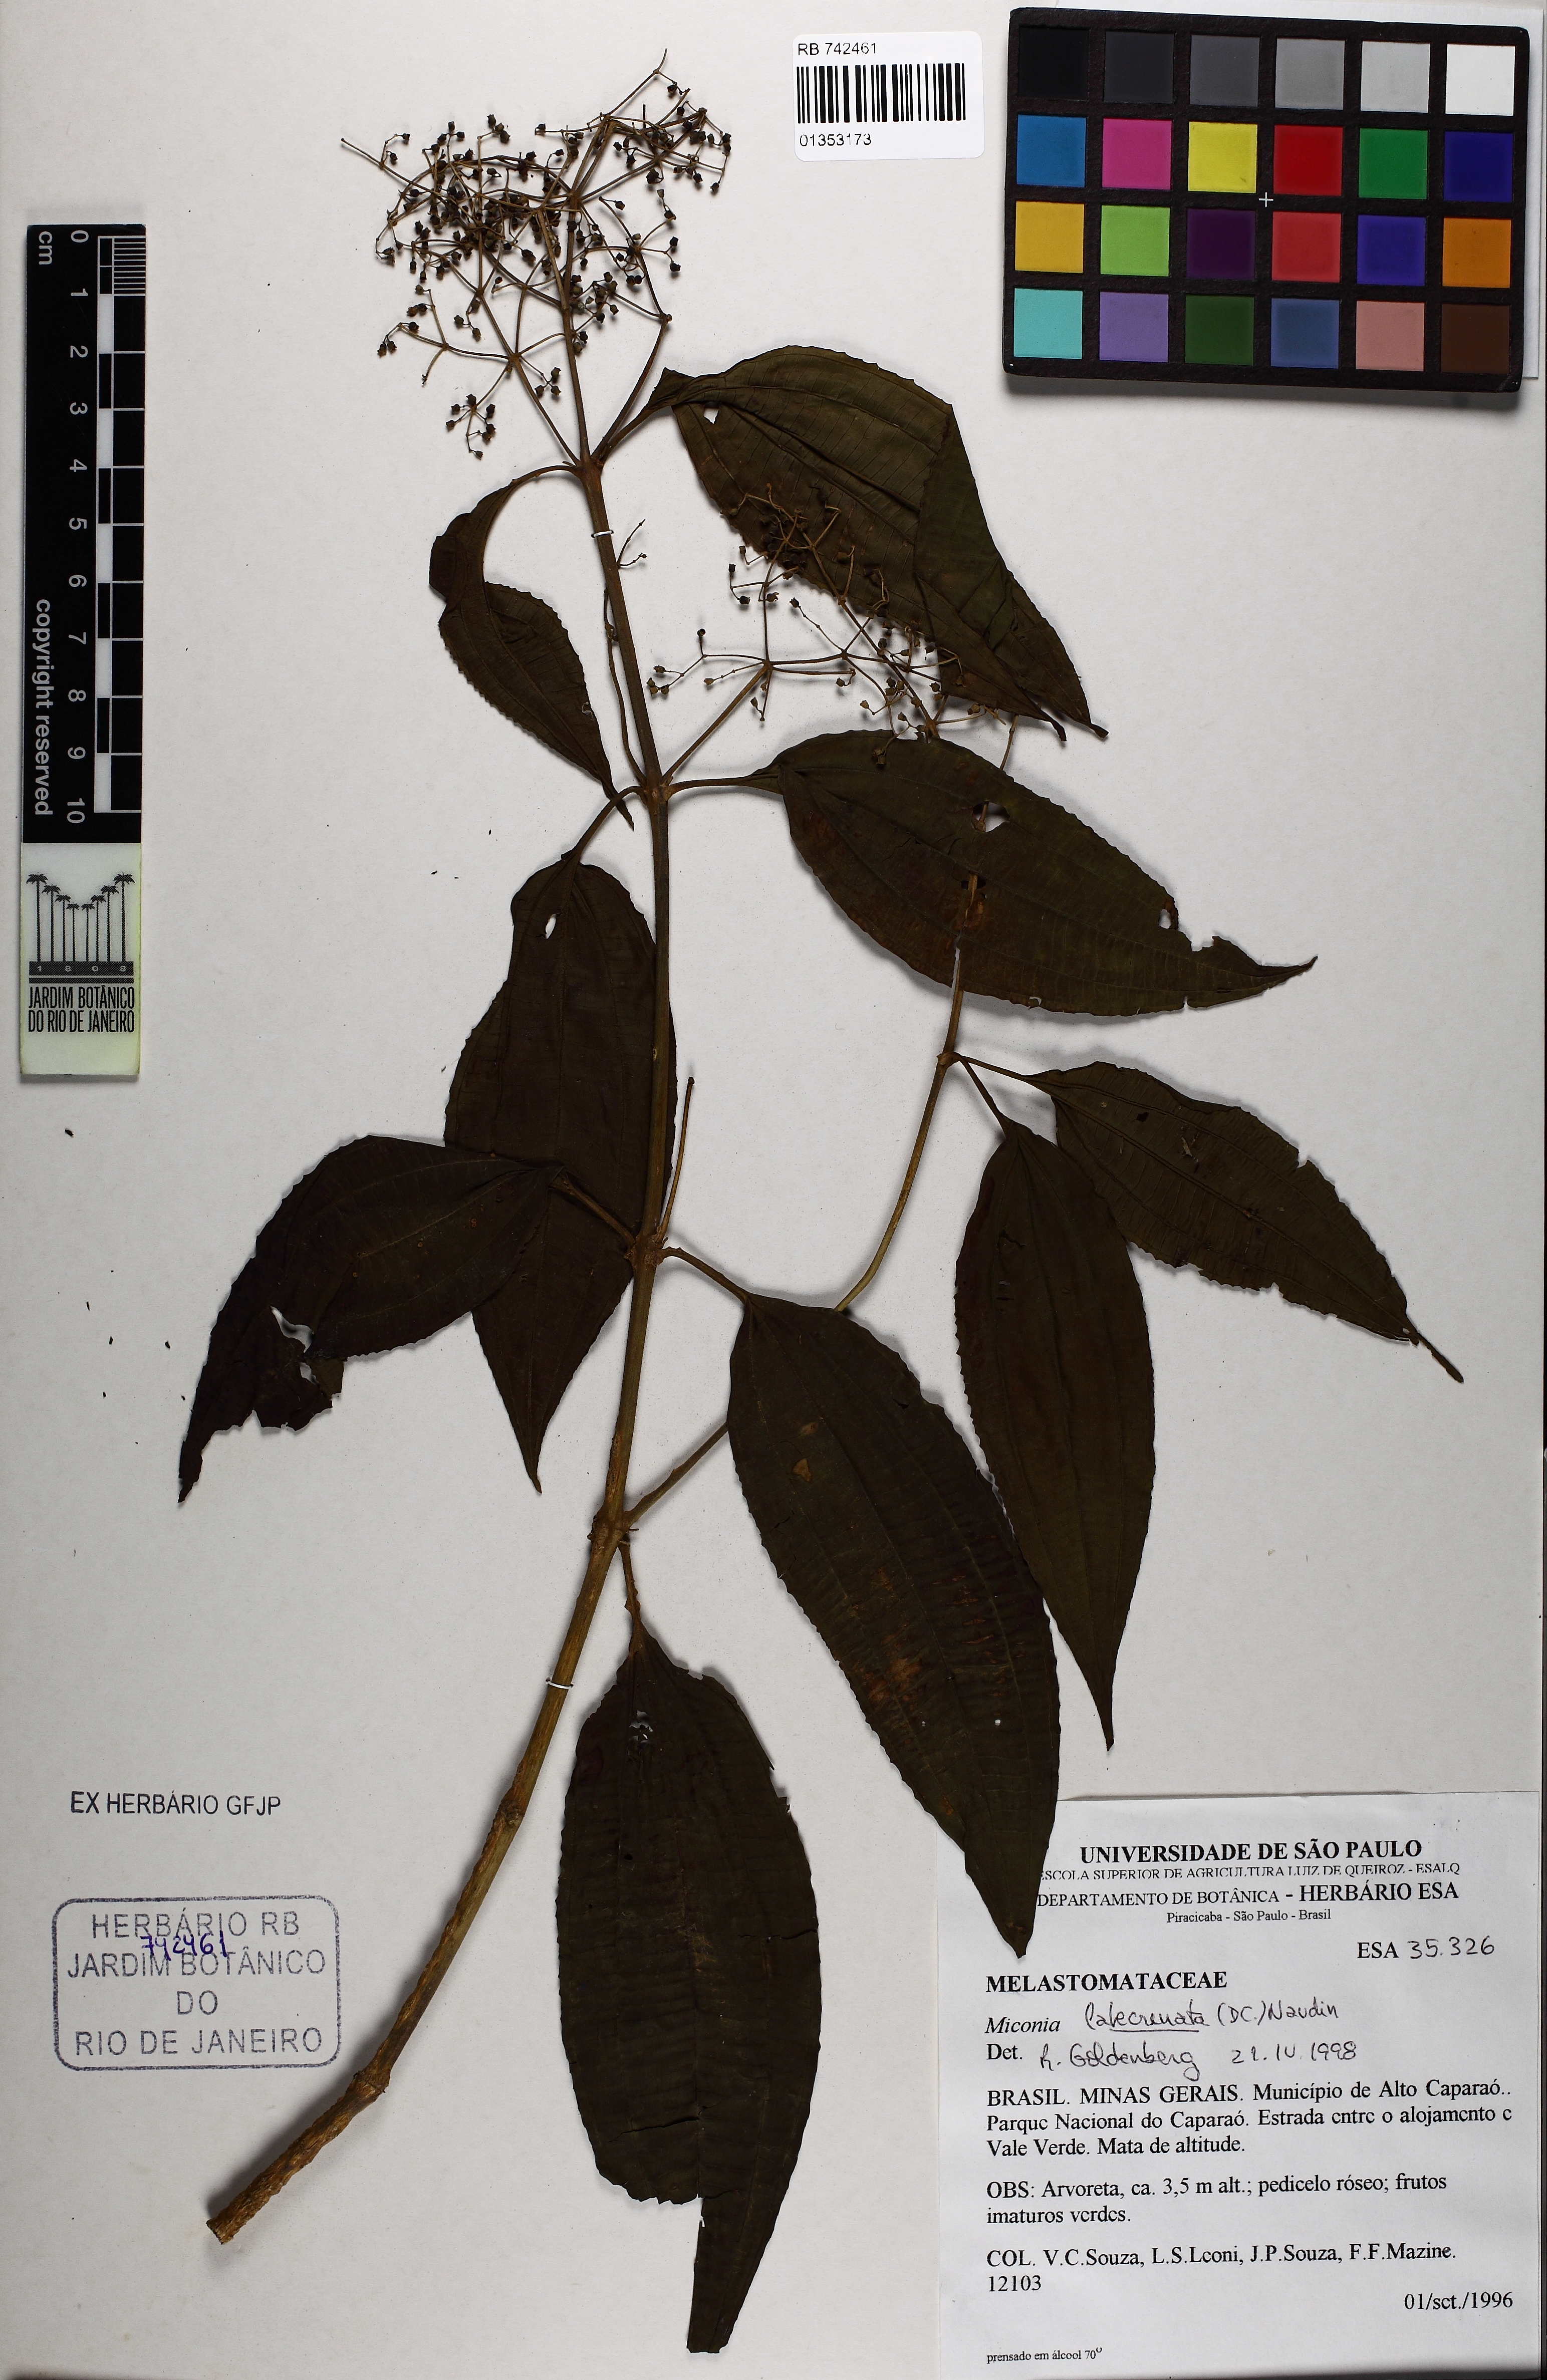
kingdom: Plantae
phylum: Tracheophyta
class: Magnoliopsida
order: Myrtales
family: Melastomataceae
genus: Miconia
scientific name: Miconia latecrenata
